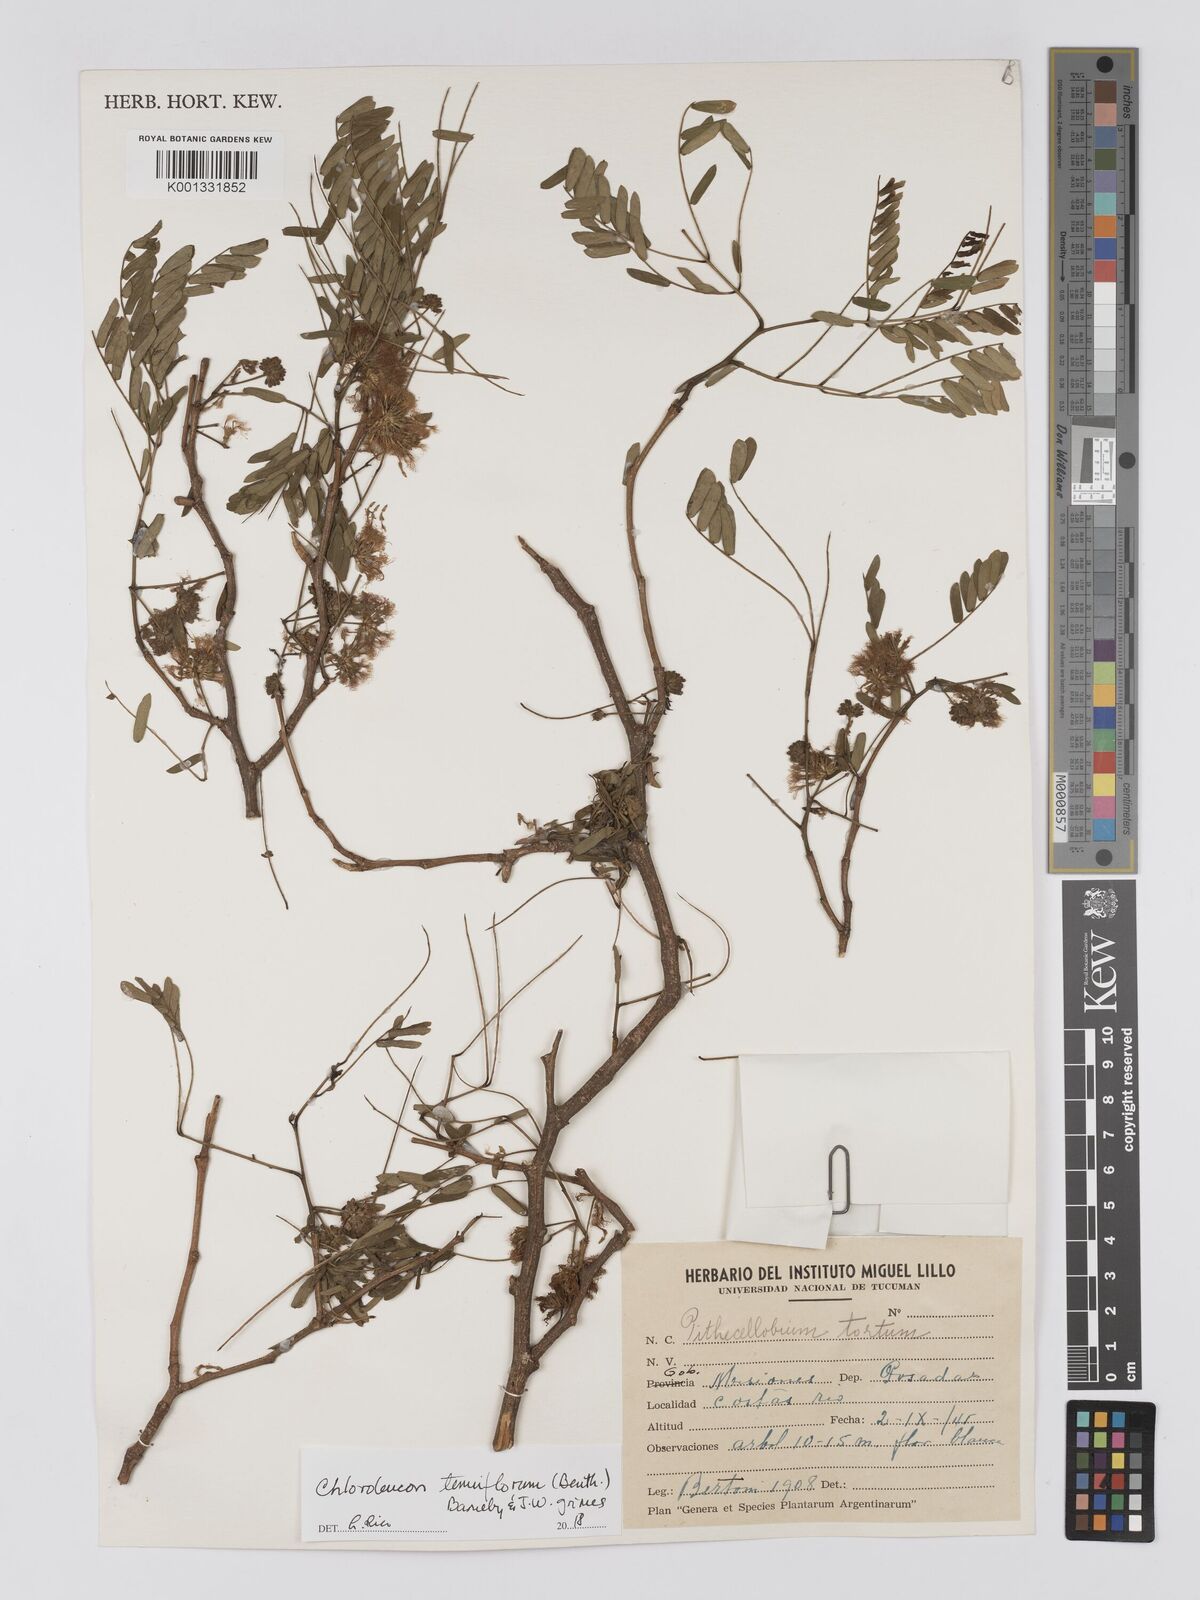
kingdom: Plantae
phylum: Tracheophyta
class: Magnoliopsida
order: Fabales
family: Fabaceae
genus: Chloroleucon
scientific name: Chloroleucon tenuiflorum
